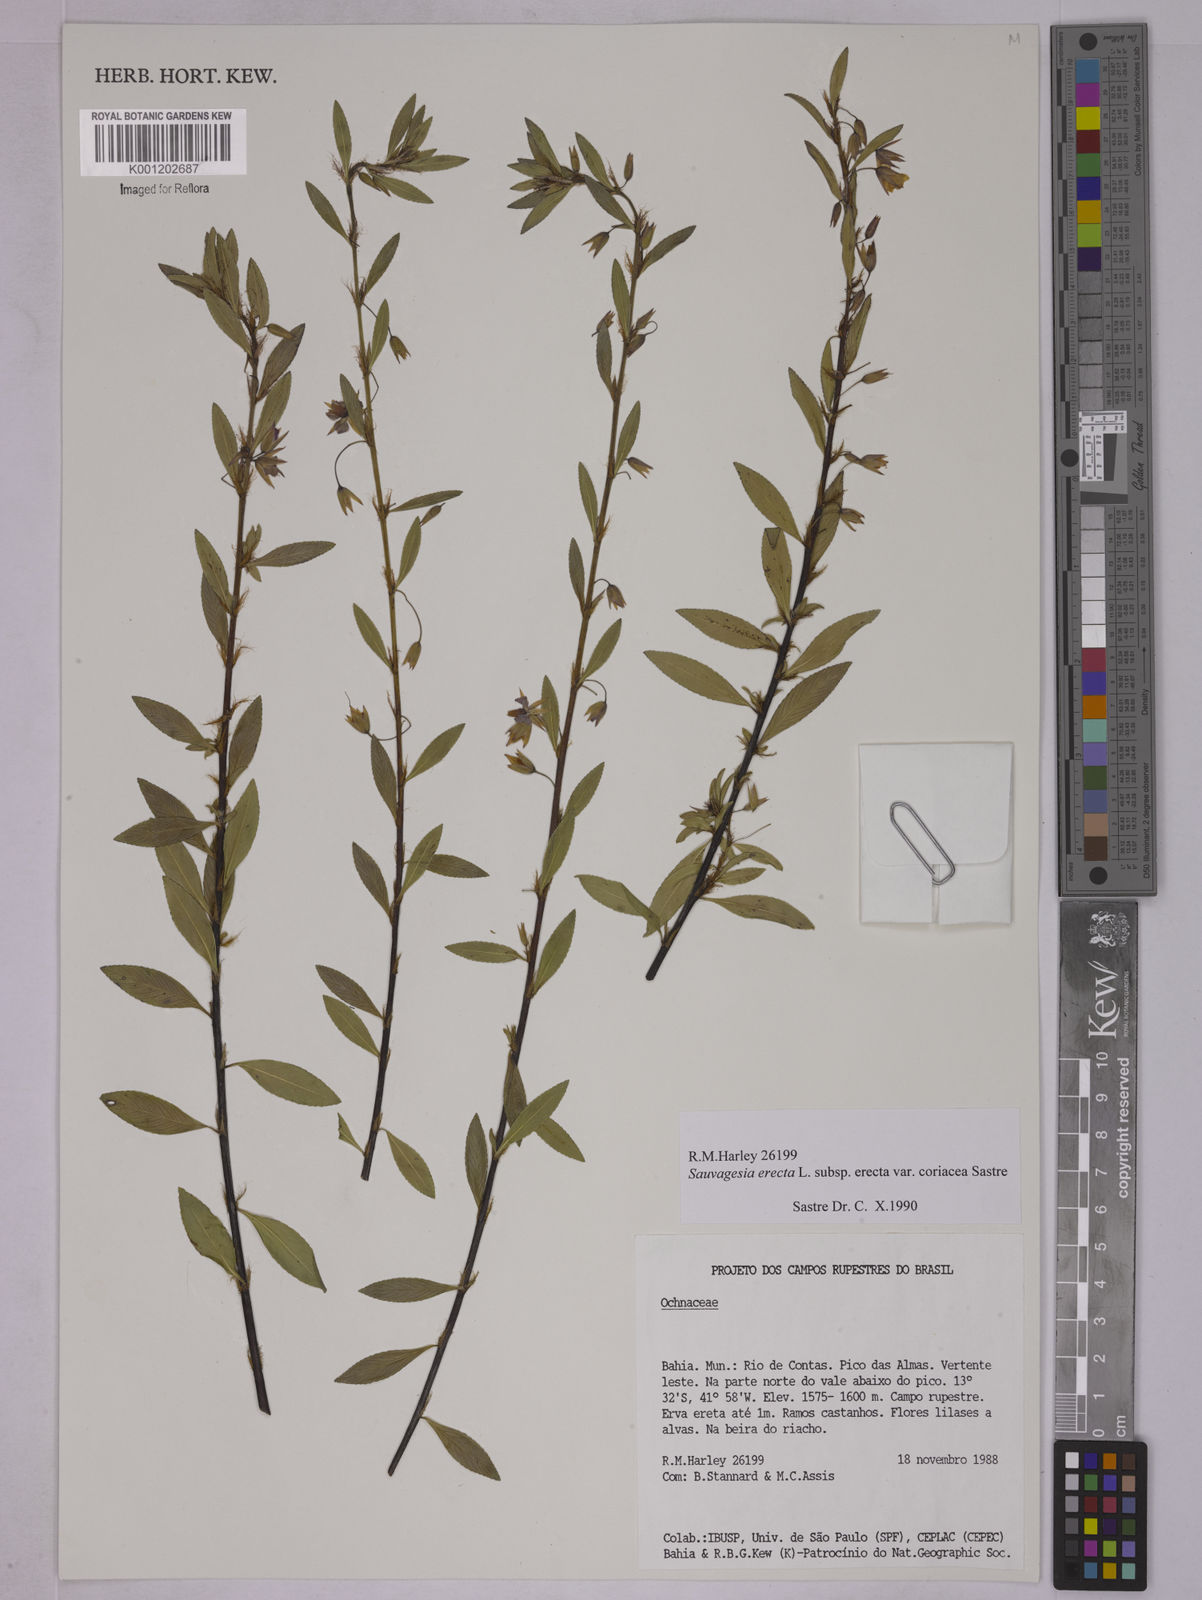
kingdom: Plantae
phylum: Tracheophyta
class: Magnoliopsida
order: Malpighiales
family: Ochnaceae
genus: Sauvagesia
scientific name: Sauvagesia erecta
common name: Creole tea
